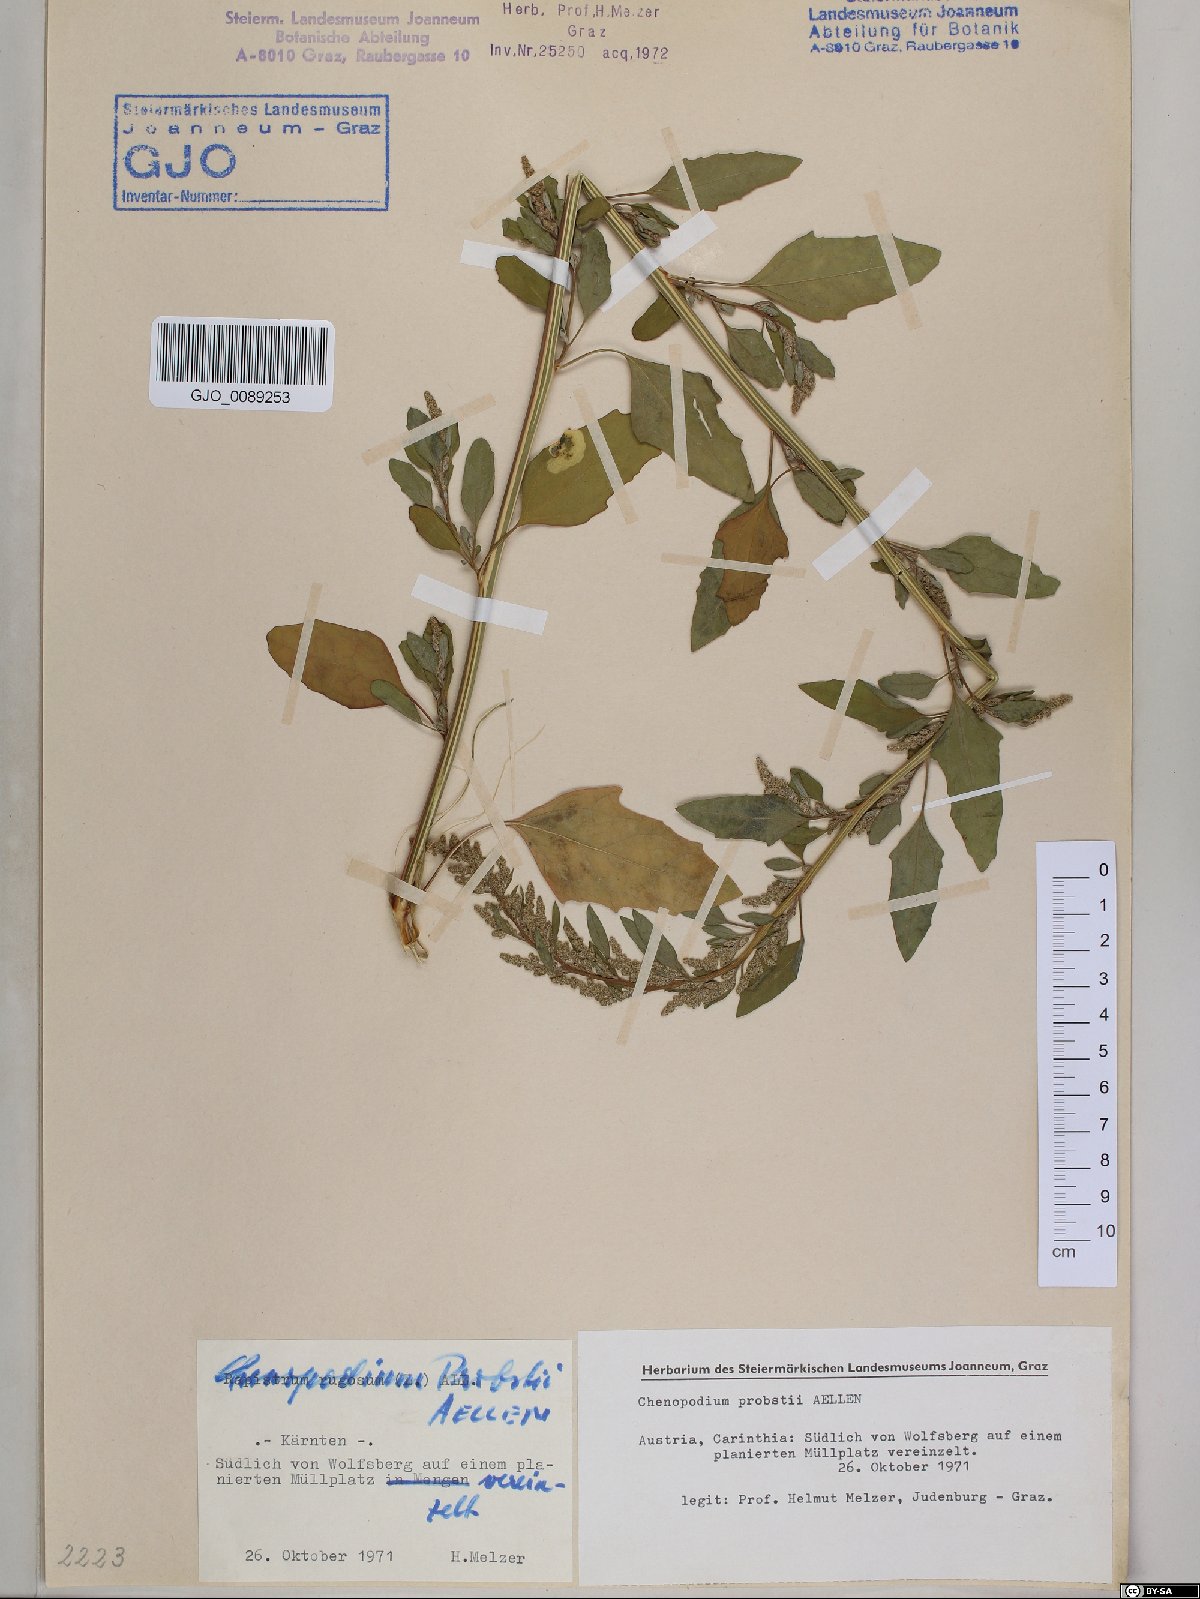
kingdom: Plantae
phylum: Tracheophyta
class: Magnoliopsida
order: Caryophyllales
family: Amaranthaceae
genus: Chenopodium
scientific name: Chenopodium probstii
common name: Probst's goosefoot
